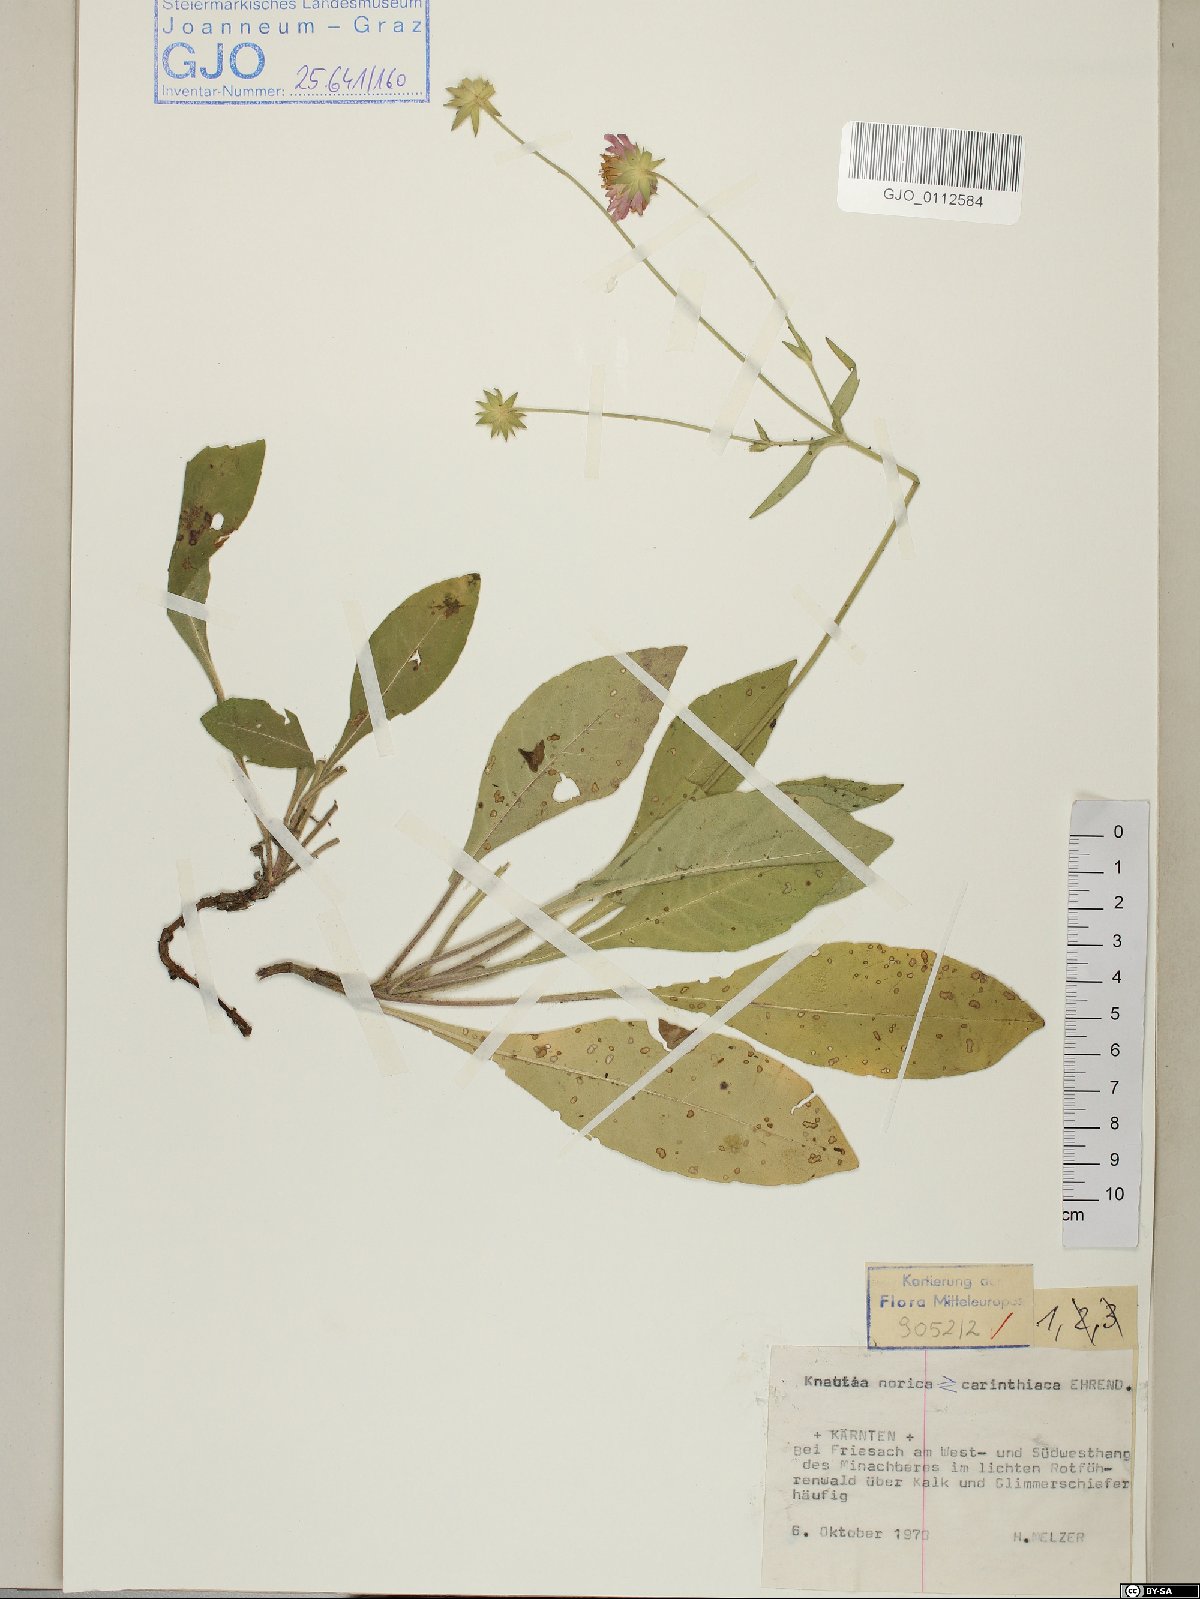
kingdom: Plantae
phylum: Tracheophyta
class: Magnoliopsida
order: Dipsacales
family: Dipsacaceae
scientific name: Dipsacaceae
